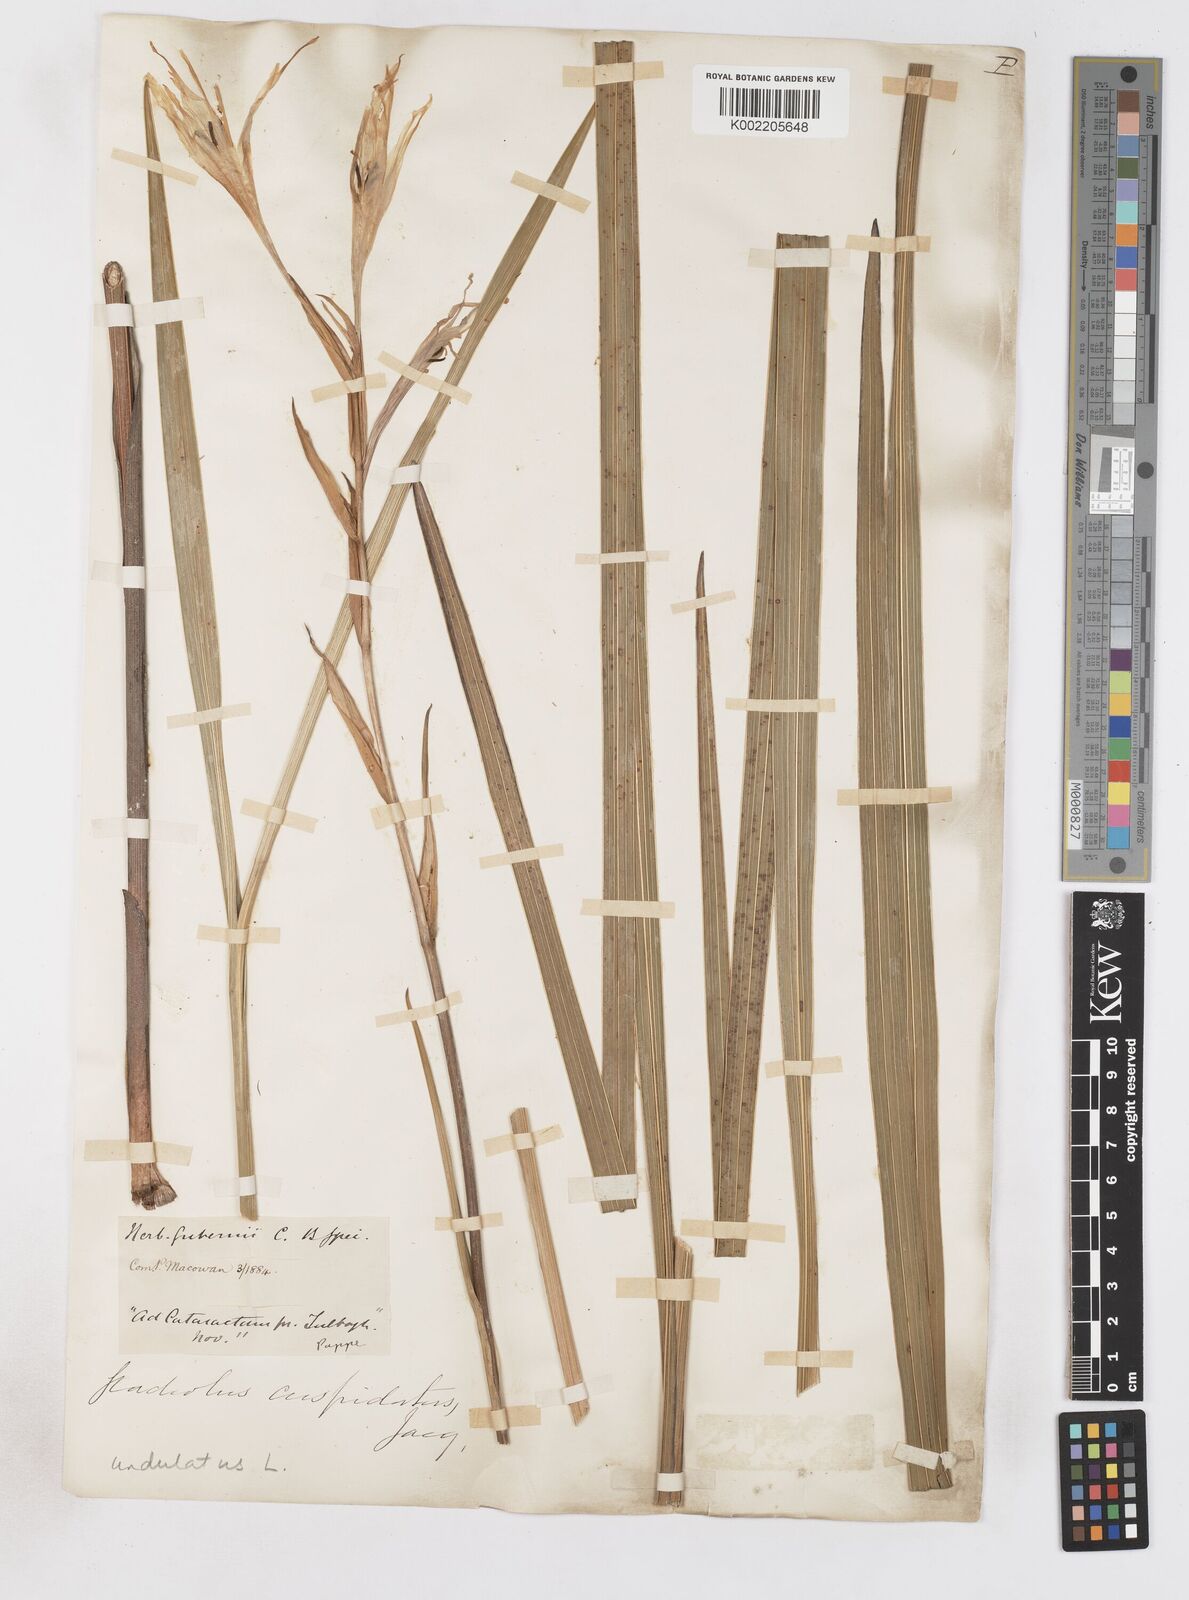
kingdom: Plantae
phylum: Tracheophyta
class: Liliopsida
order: Asparagales
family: Iridaceae
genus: Gladiolus
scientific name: Gladiolus undulatus
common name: Large painted-lady
